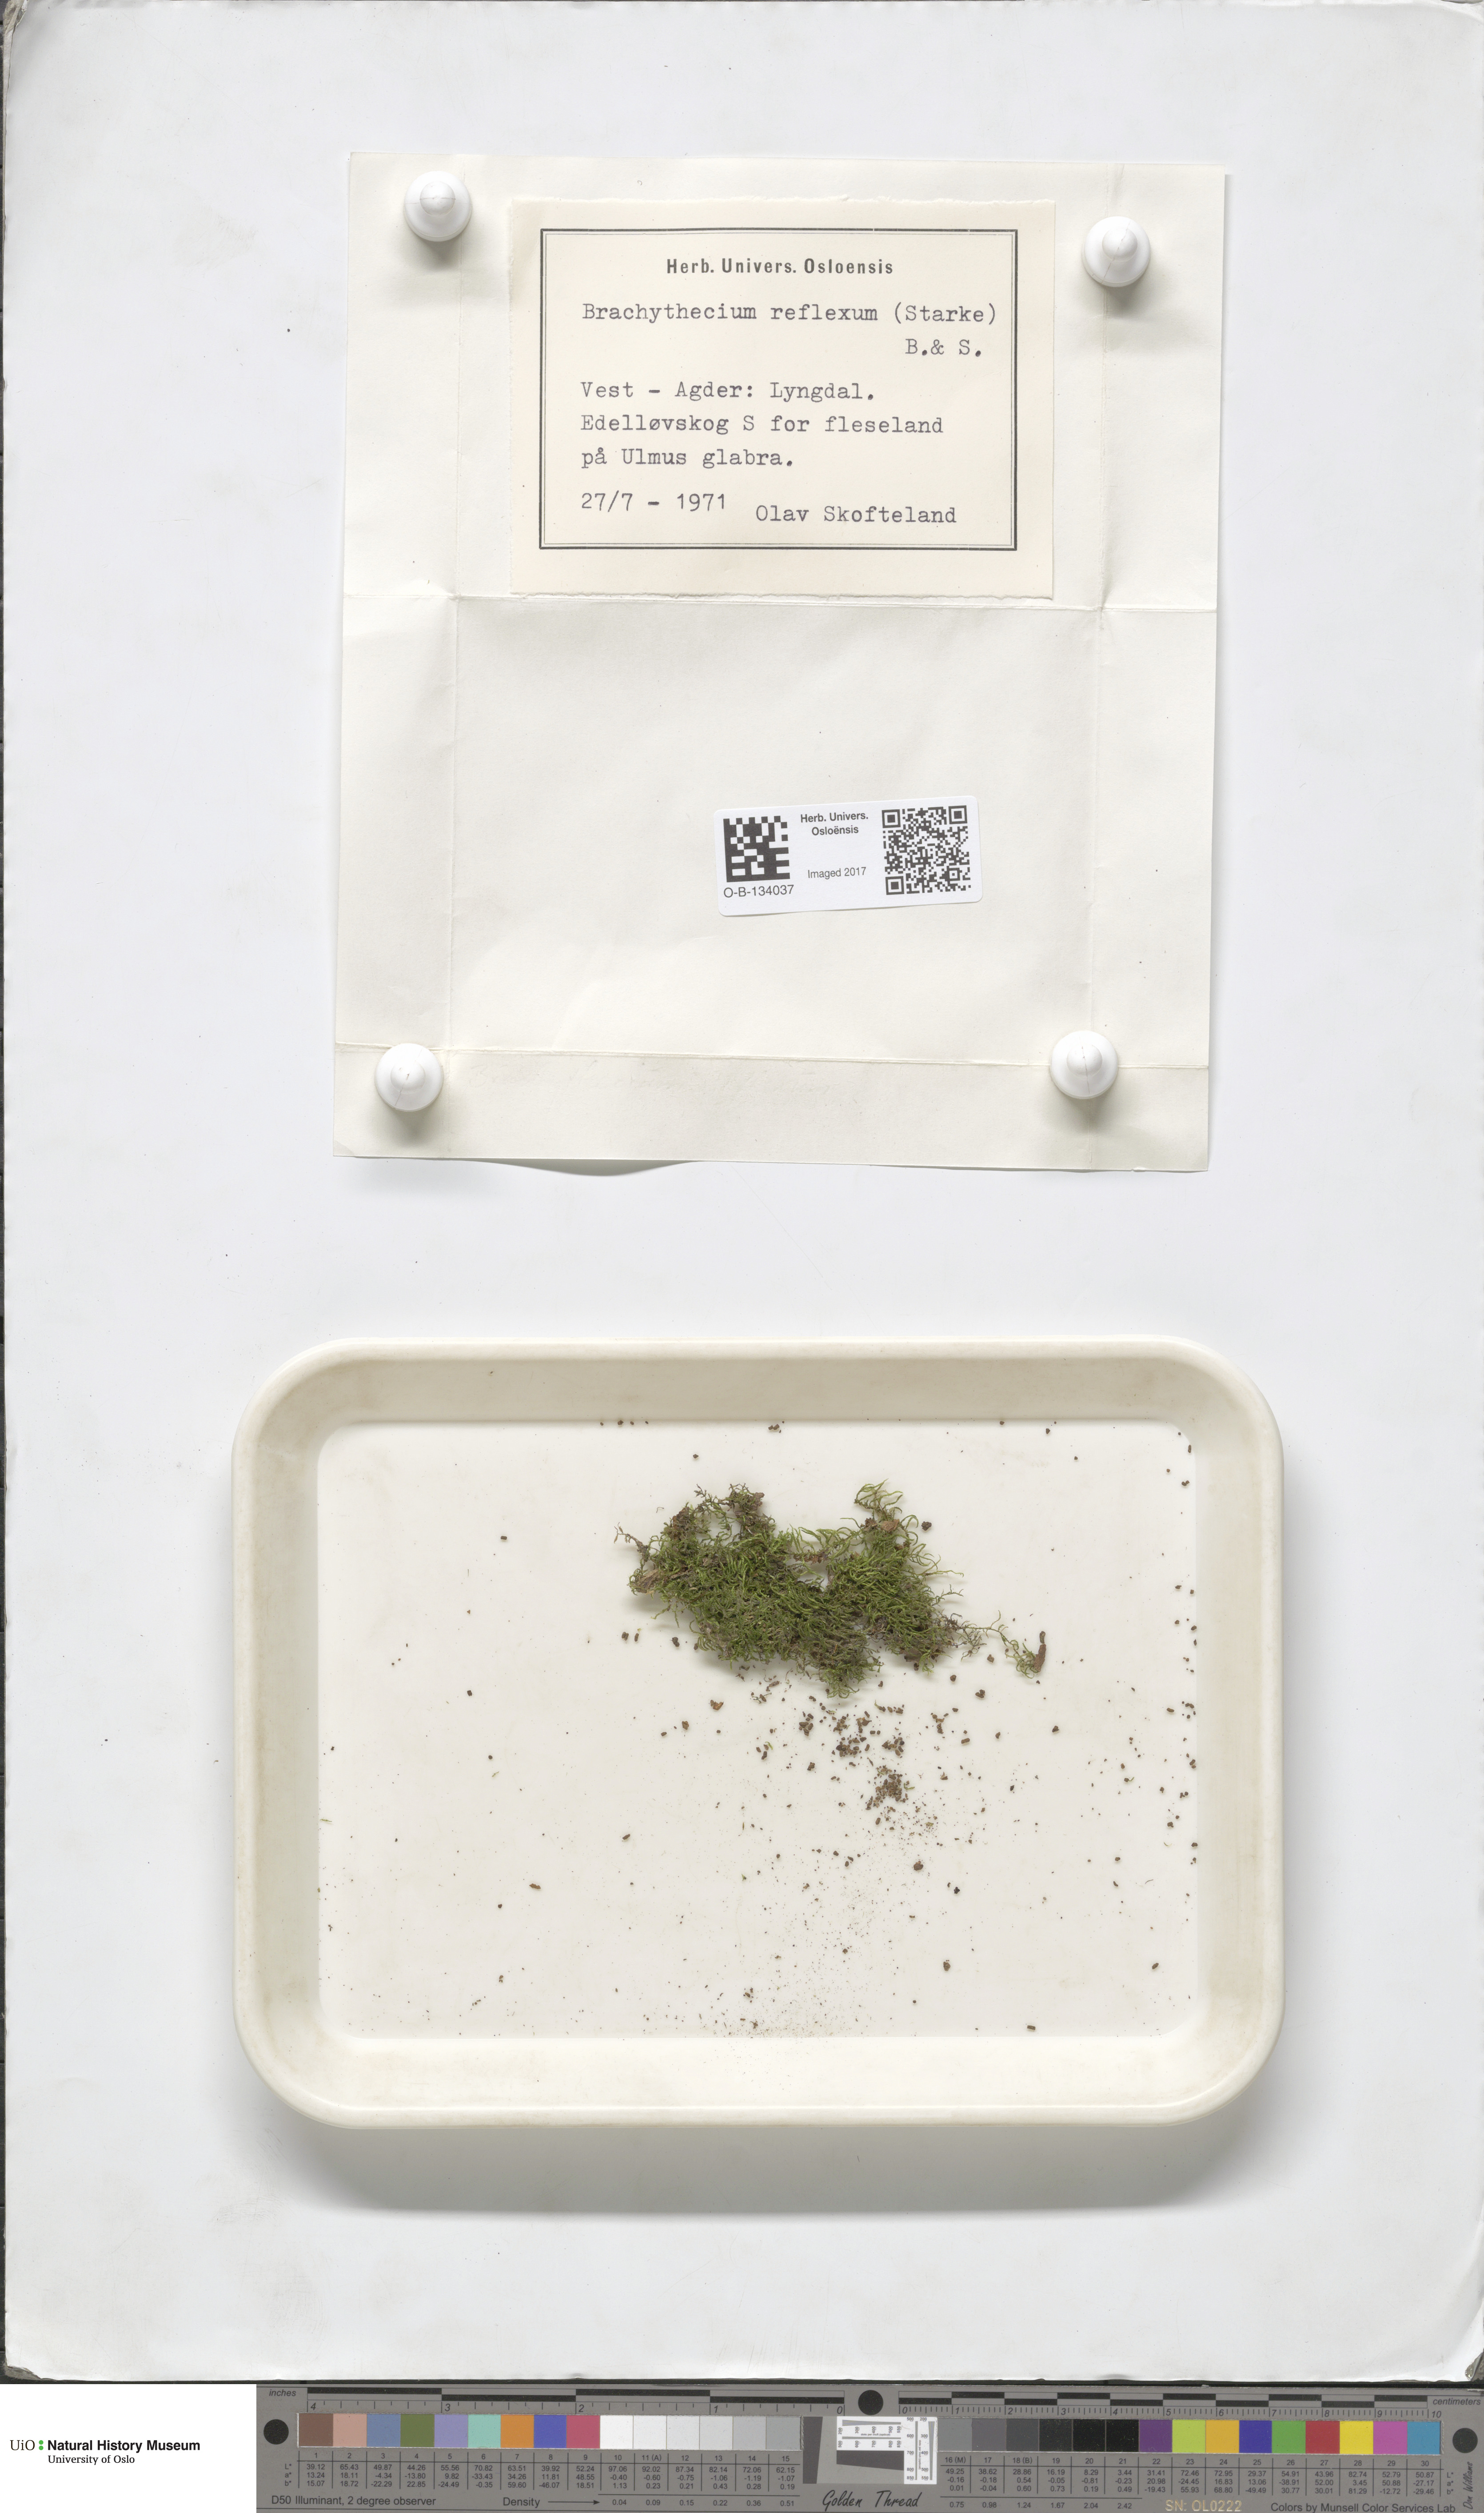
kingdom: Plantae
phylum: Bryophyta
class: Bryopsida
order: Hypnales
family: Brachytheciaceae
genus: Sciuro-hypnum
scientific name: Sciuro-hypnum reflexum
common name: Reflexed feather-moss
